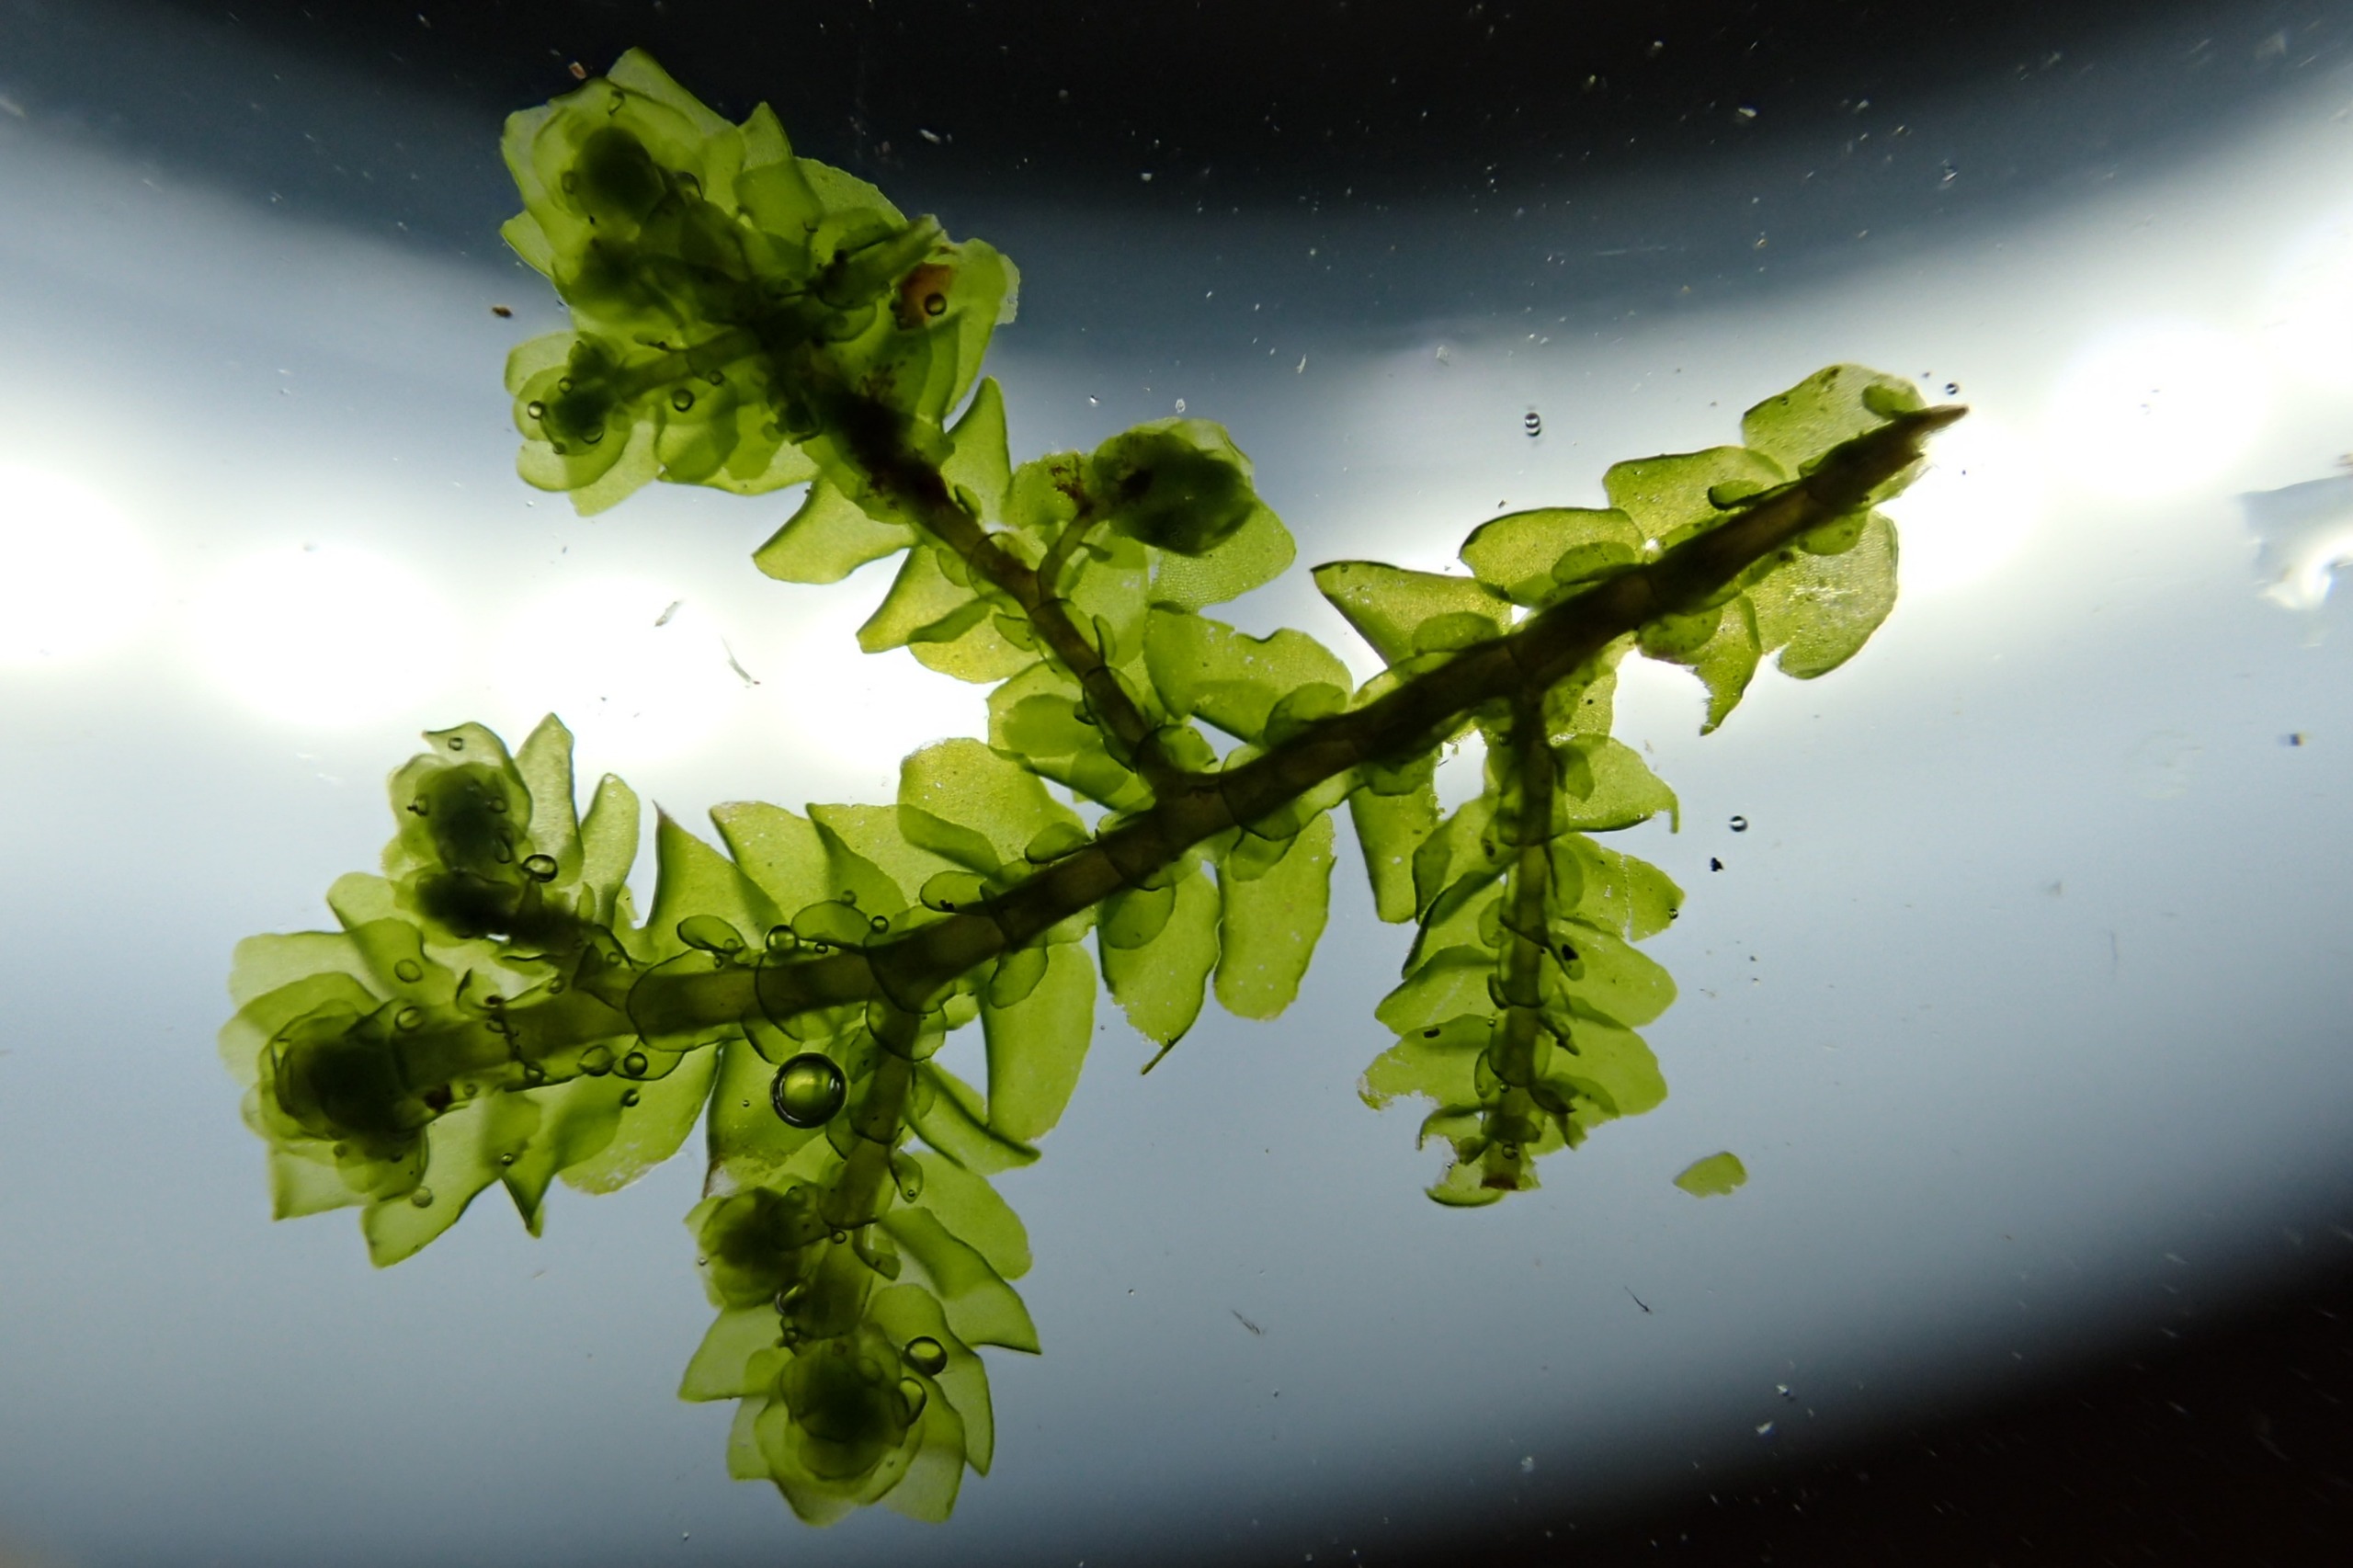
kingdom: Plantae
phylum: Marchantiophyta
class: Jungermanniopsida
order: Porellales
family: Porellaceae
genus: Porella
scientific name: Porella platyphylla
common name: Almindelig skælryg
